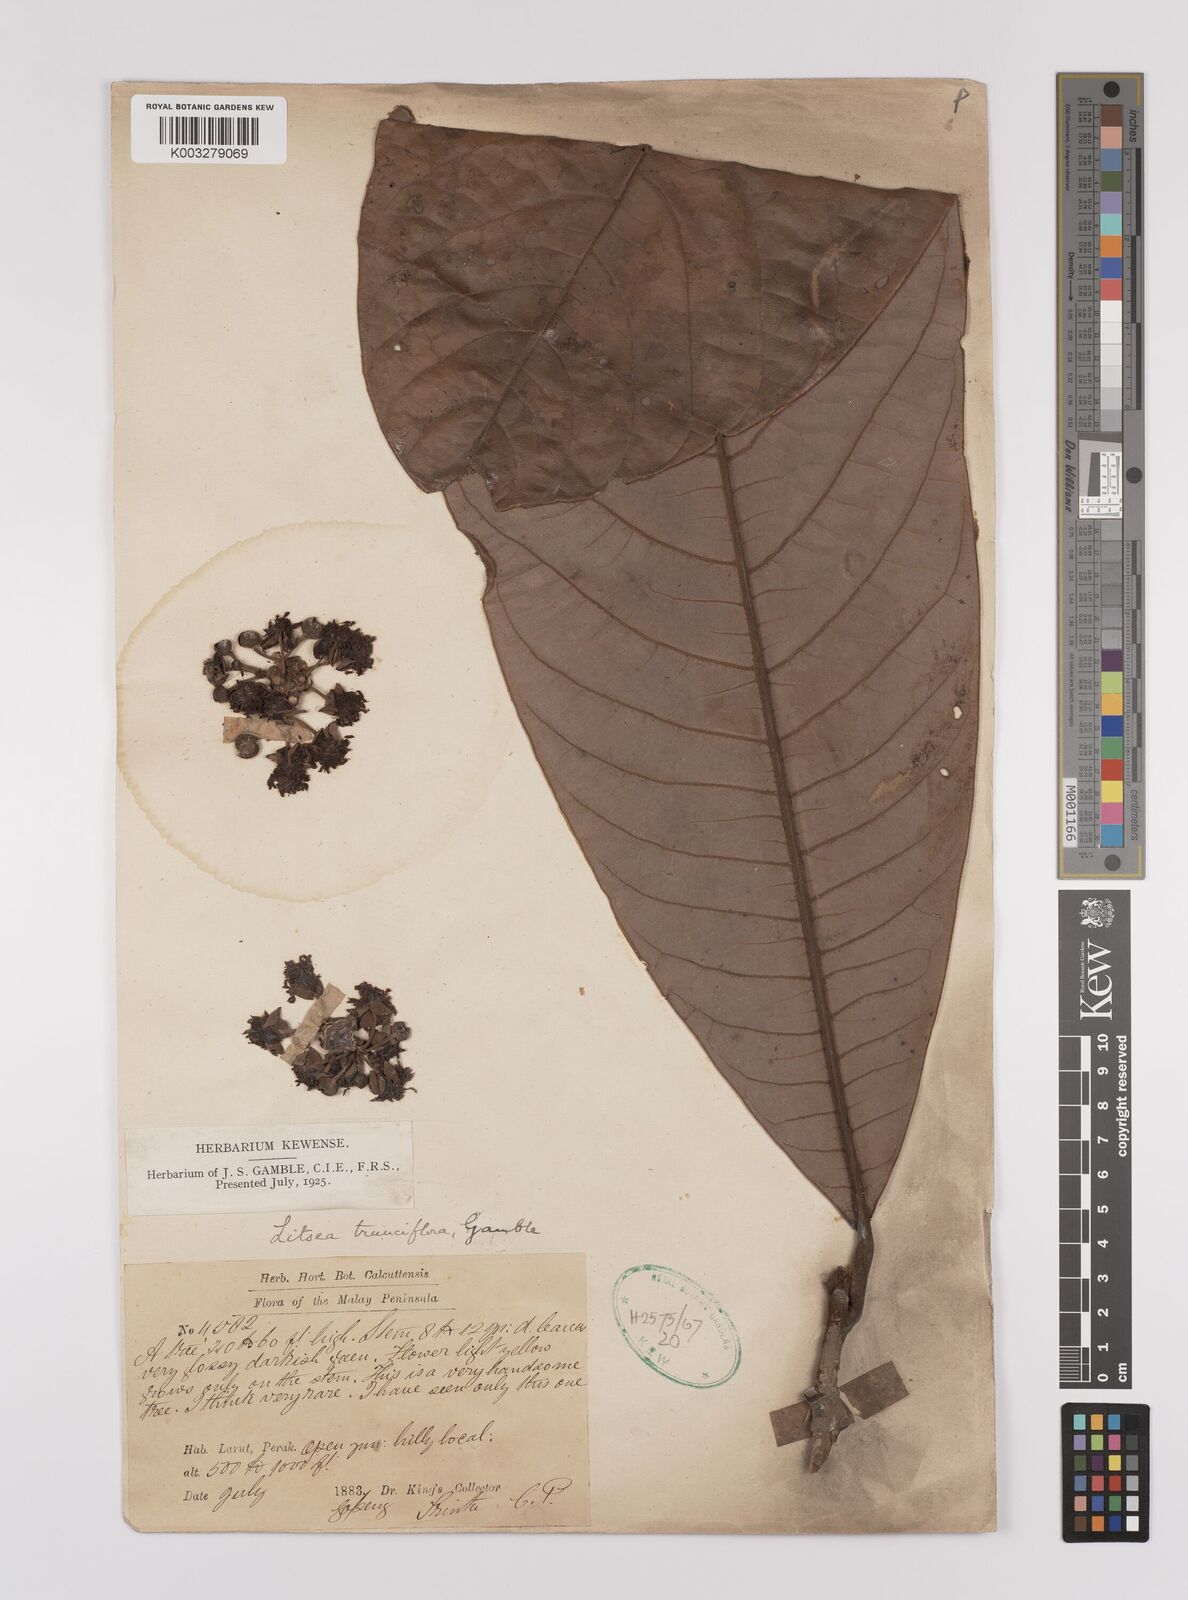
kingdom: Plantae
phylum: Tracheophyta
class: Magnoliopsida
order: Laurales
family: Lauraceae
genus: Litsea
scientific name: Litsea johorensis
